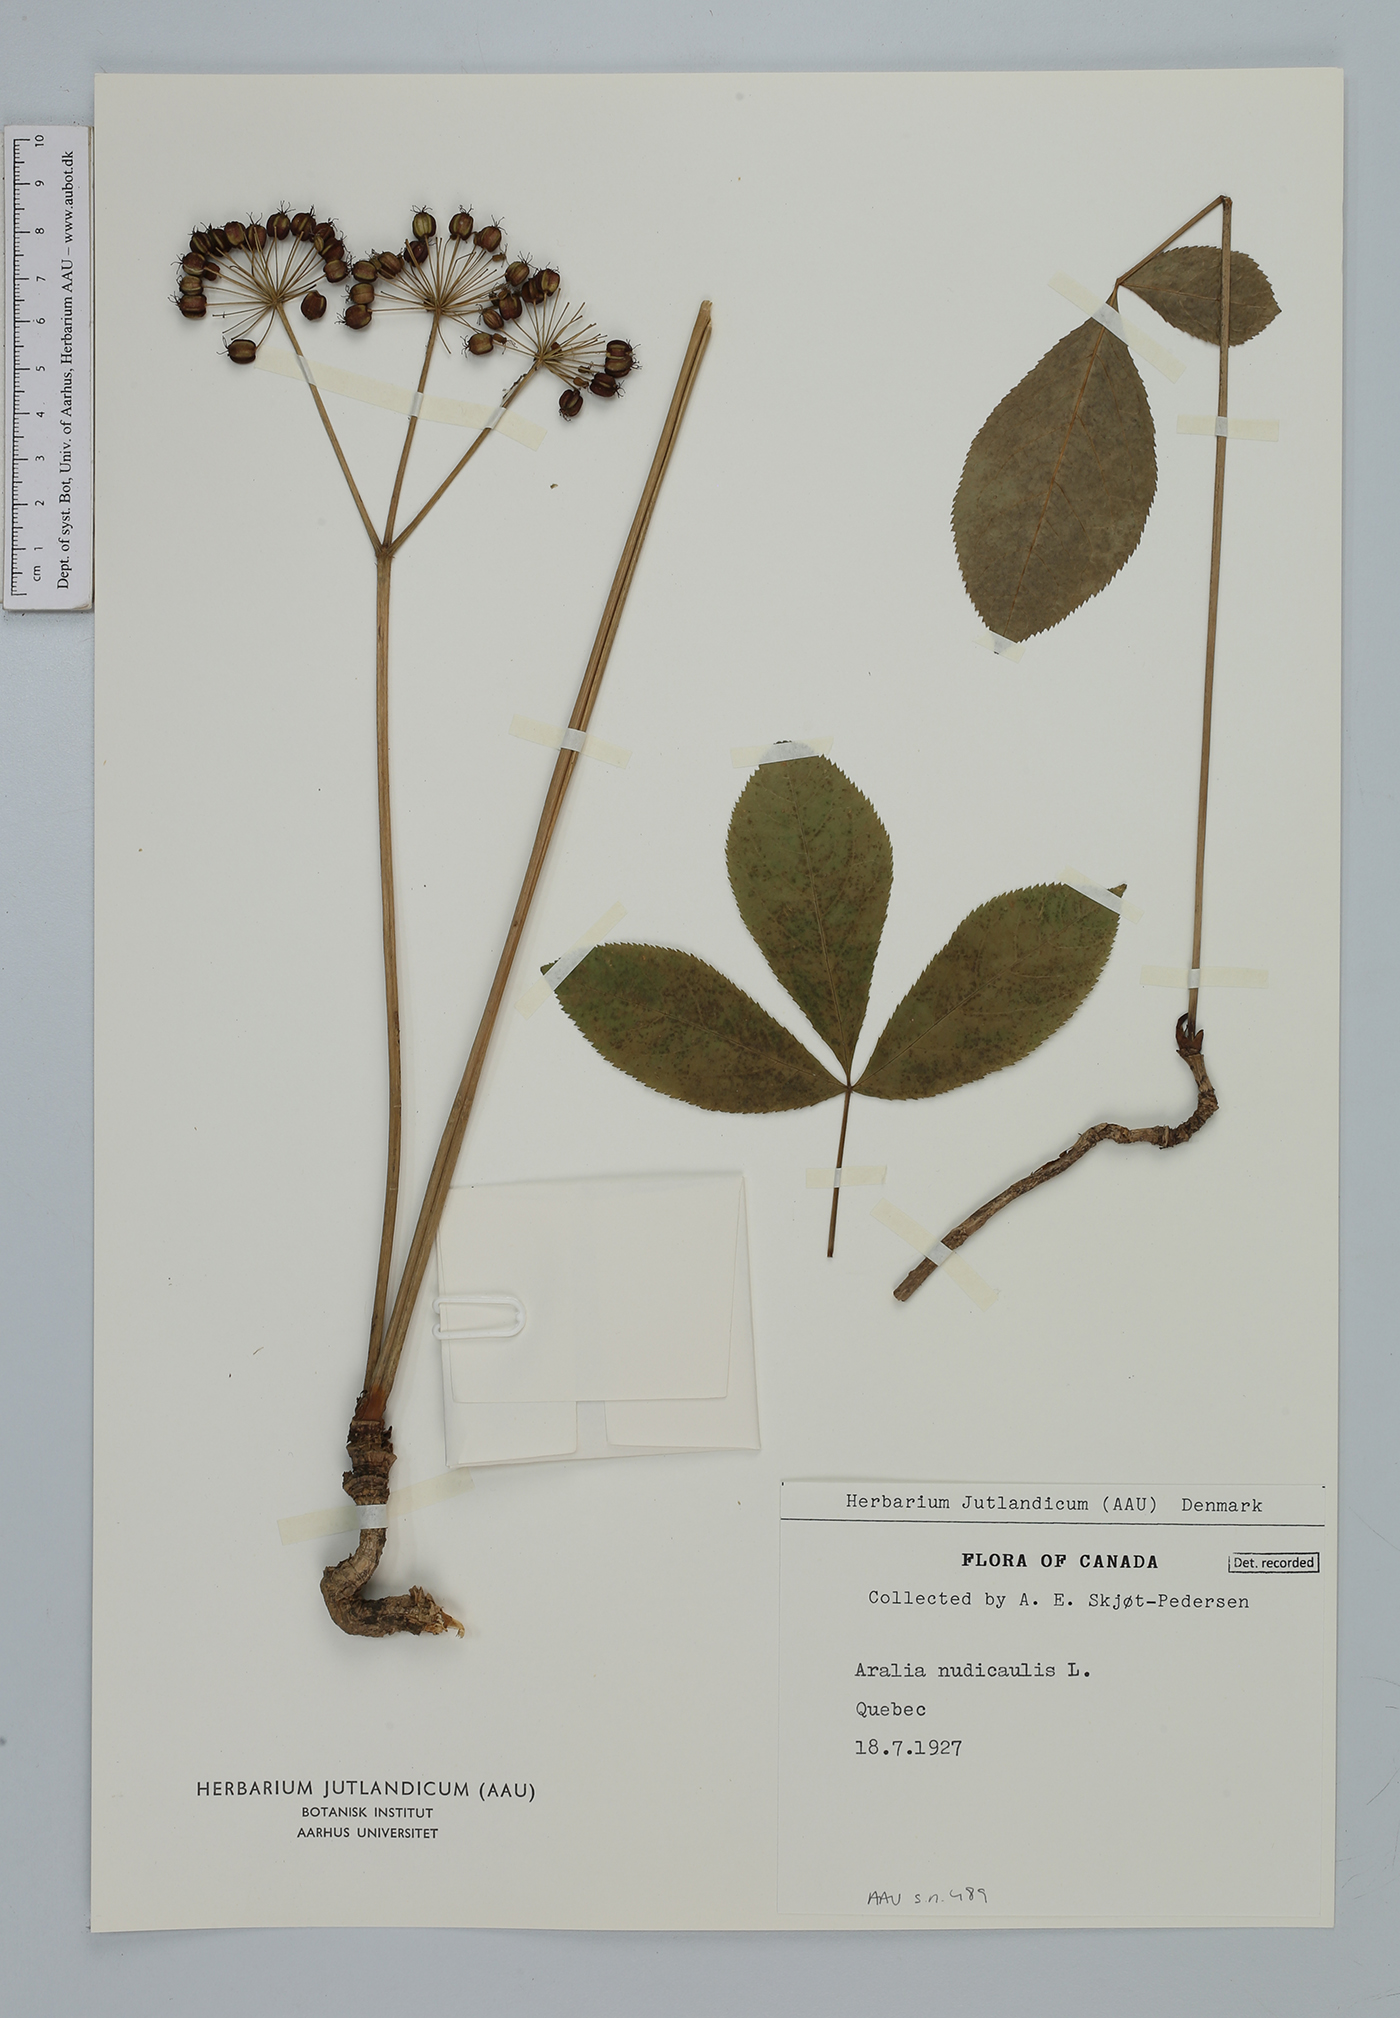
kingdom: Plantae
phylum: Tracheophyta
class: Magnoliopsida
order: Apiales
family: Araliaceae
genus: Aralia
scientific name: Aralia nudicaulis
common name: Wild sarsaparilla
